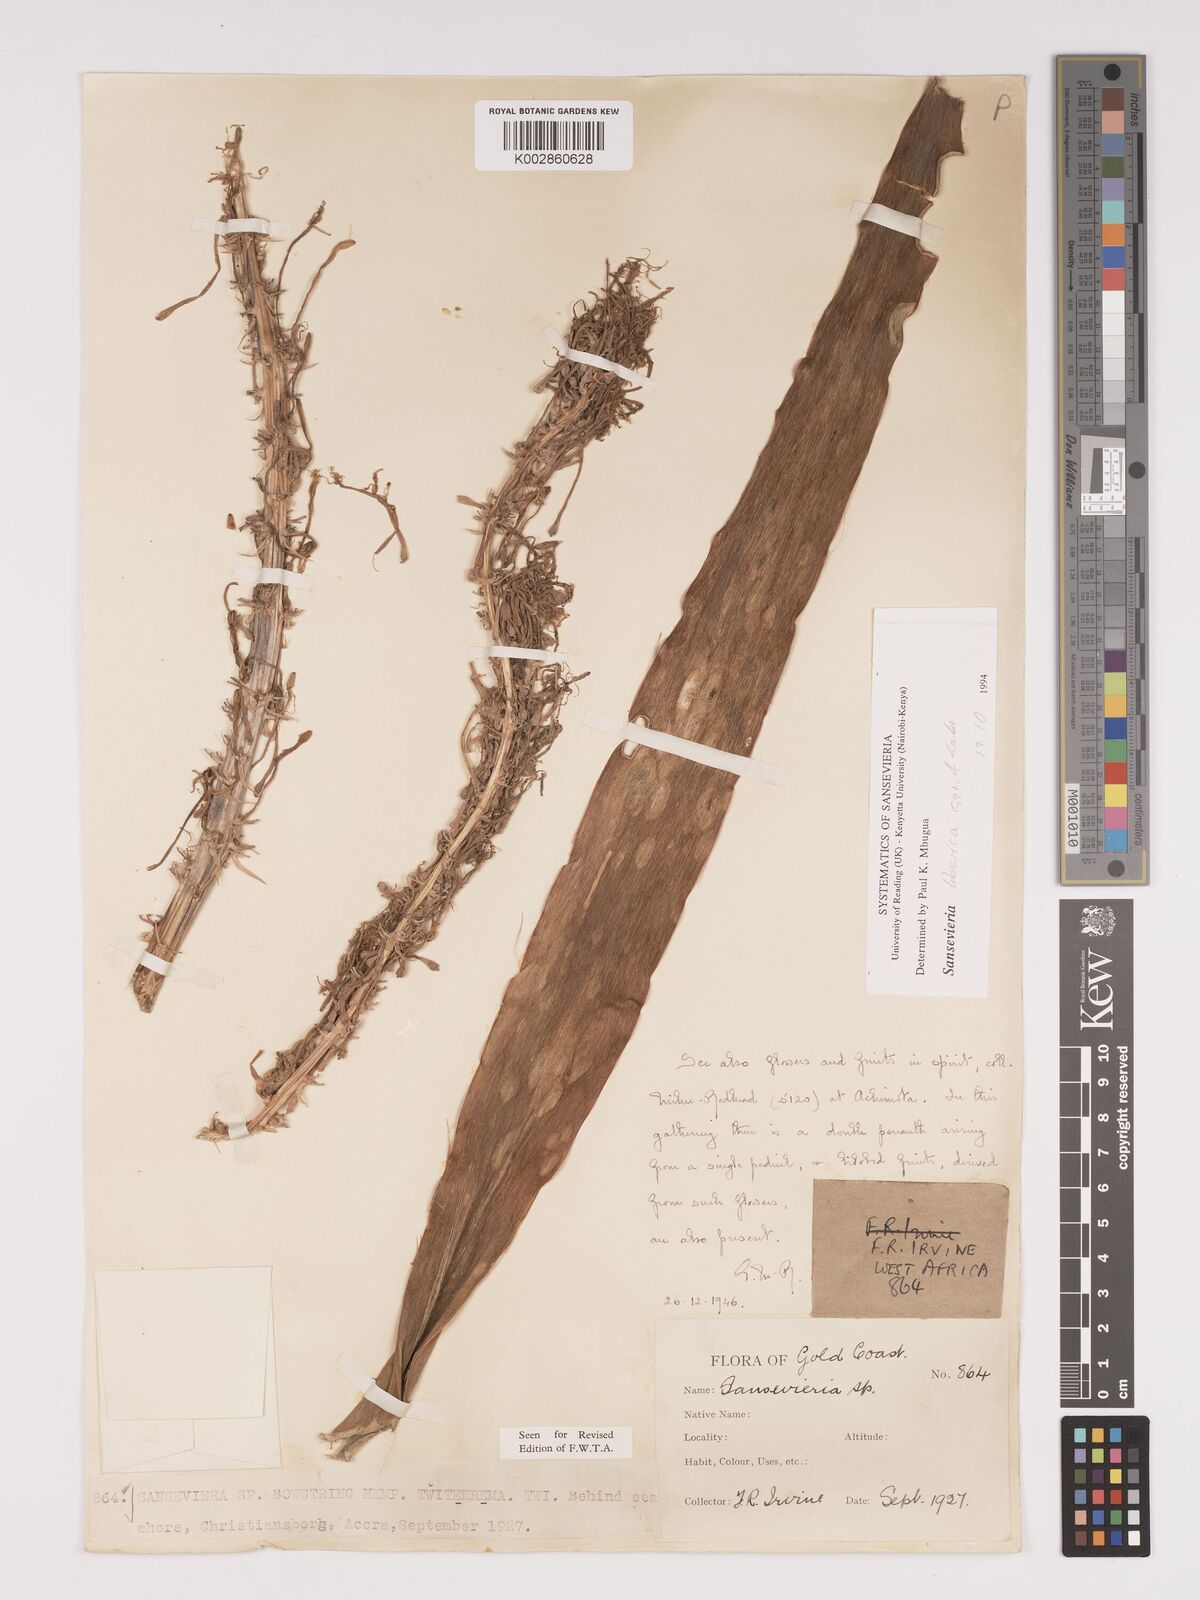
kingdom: Plantae
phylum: Tracheophyta
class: Liliopsida
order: Asparagales
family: Asparagaceae
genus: Dracaena
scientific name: Dracaena liberica
